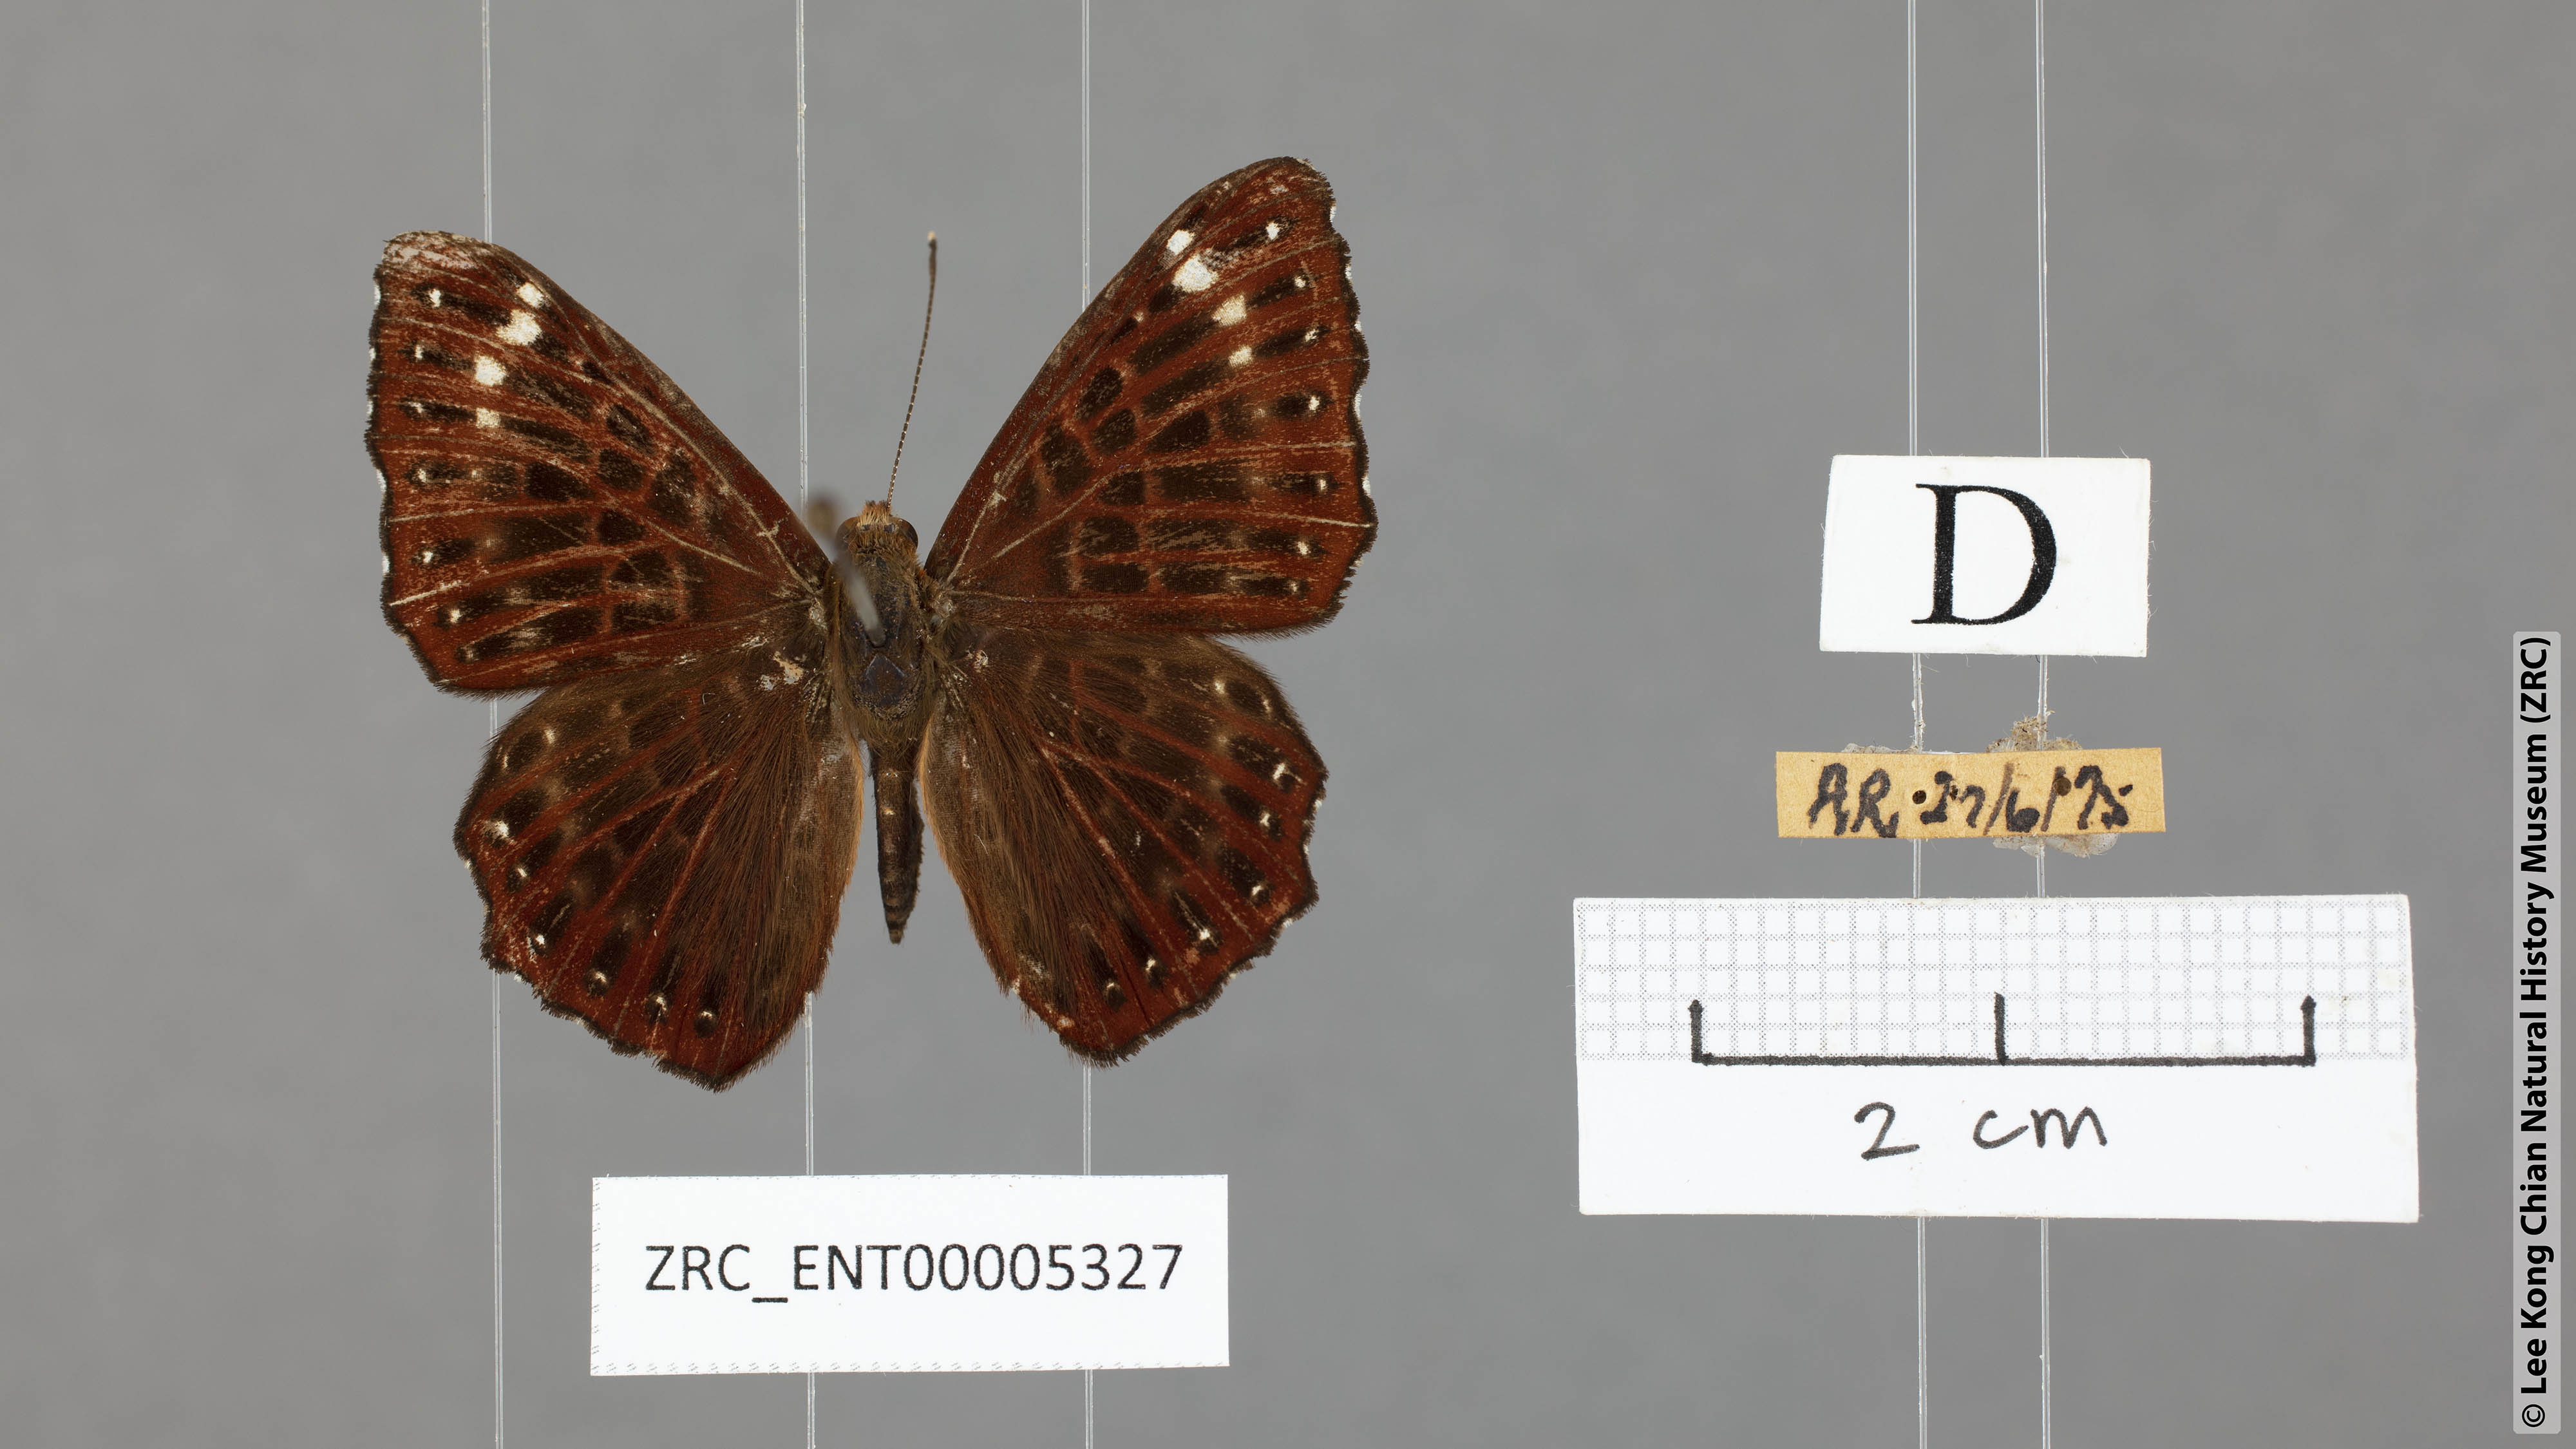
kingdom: Animalia
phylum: Arthropoda
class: Insecta
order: Lepidoptera
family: Riodinidae
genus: Zemeros
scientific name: Zemeros flegyas
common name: Punchinello
